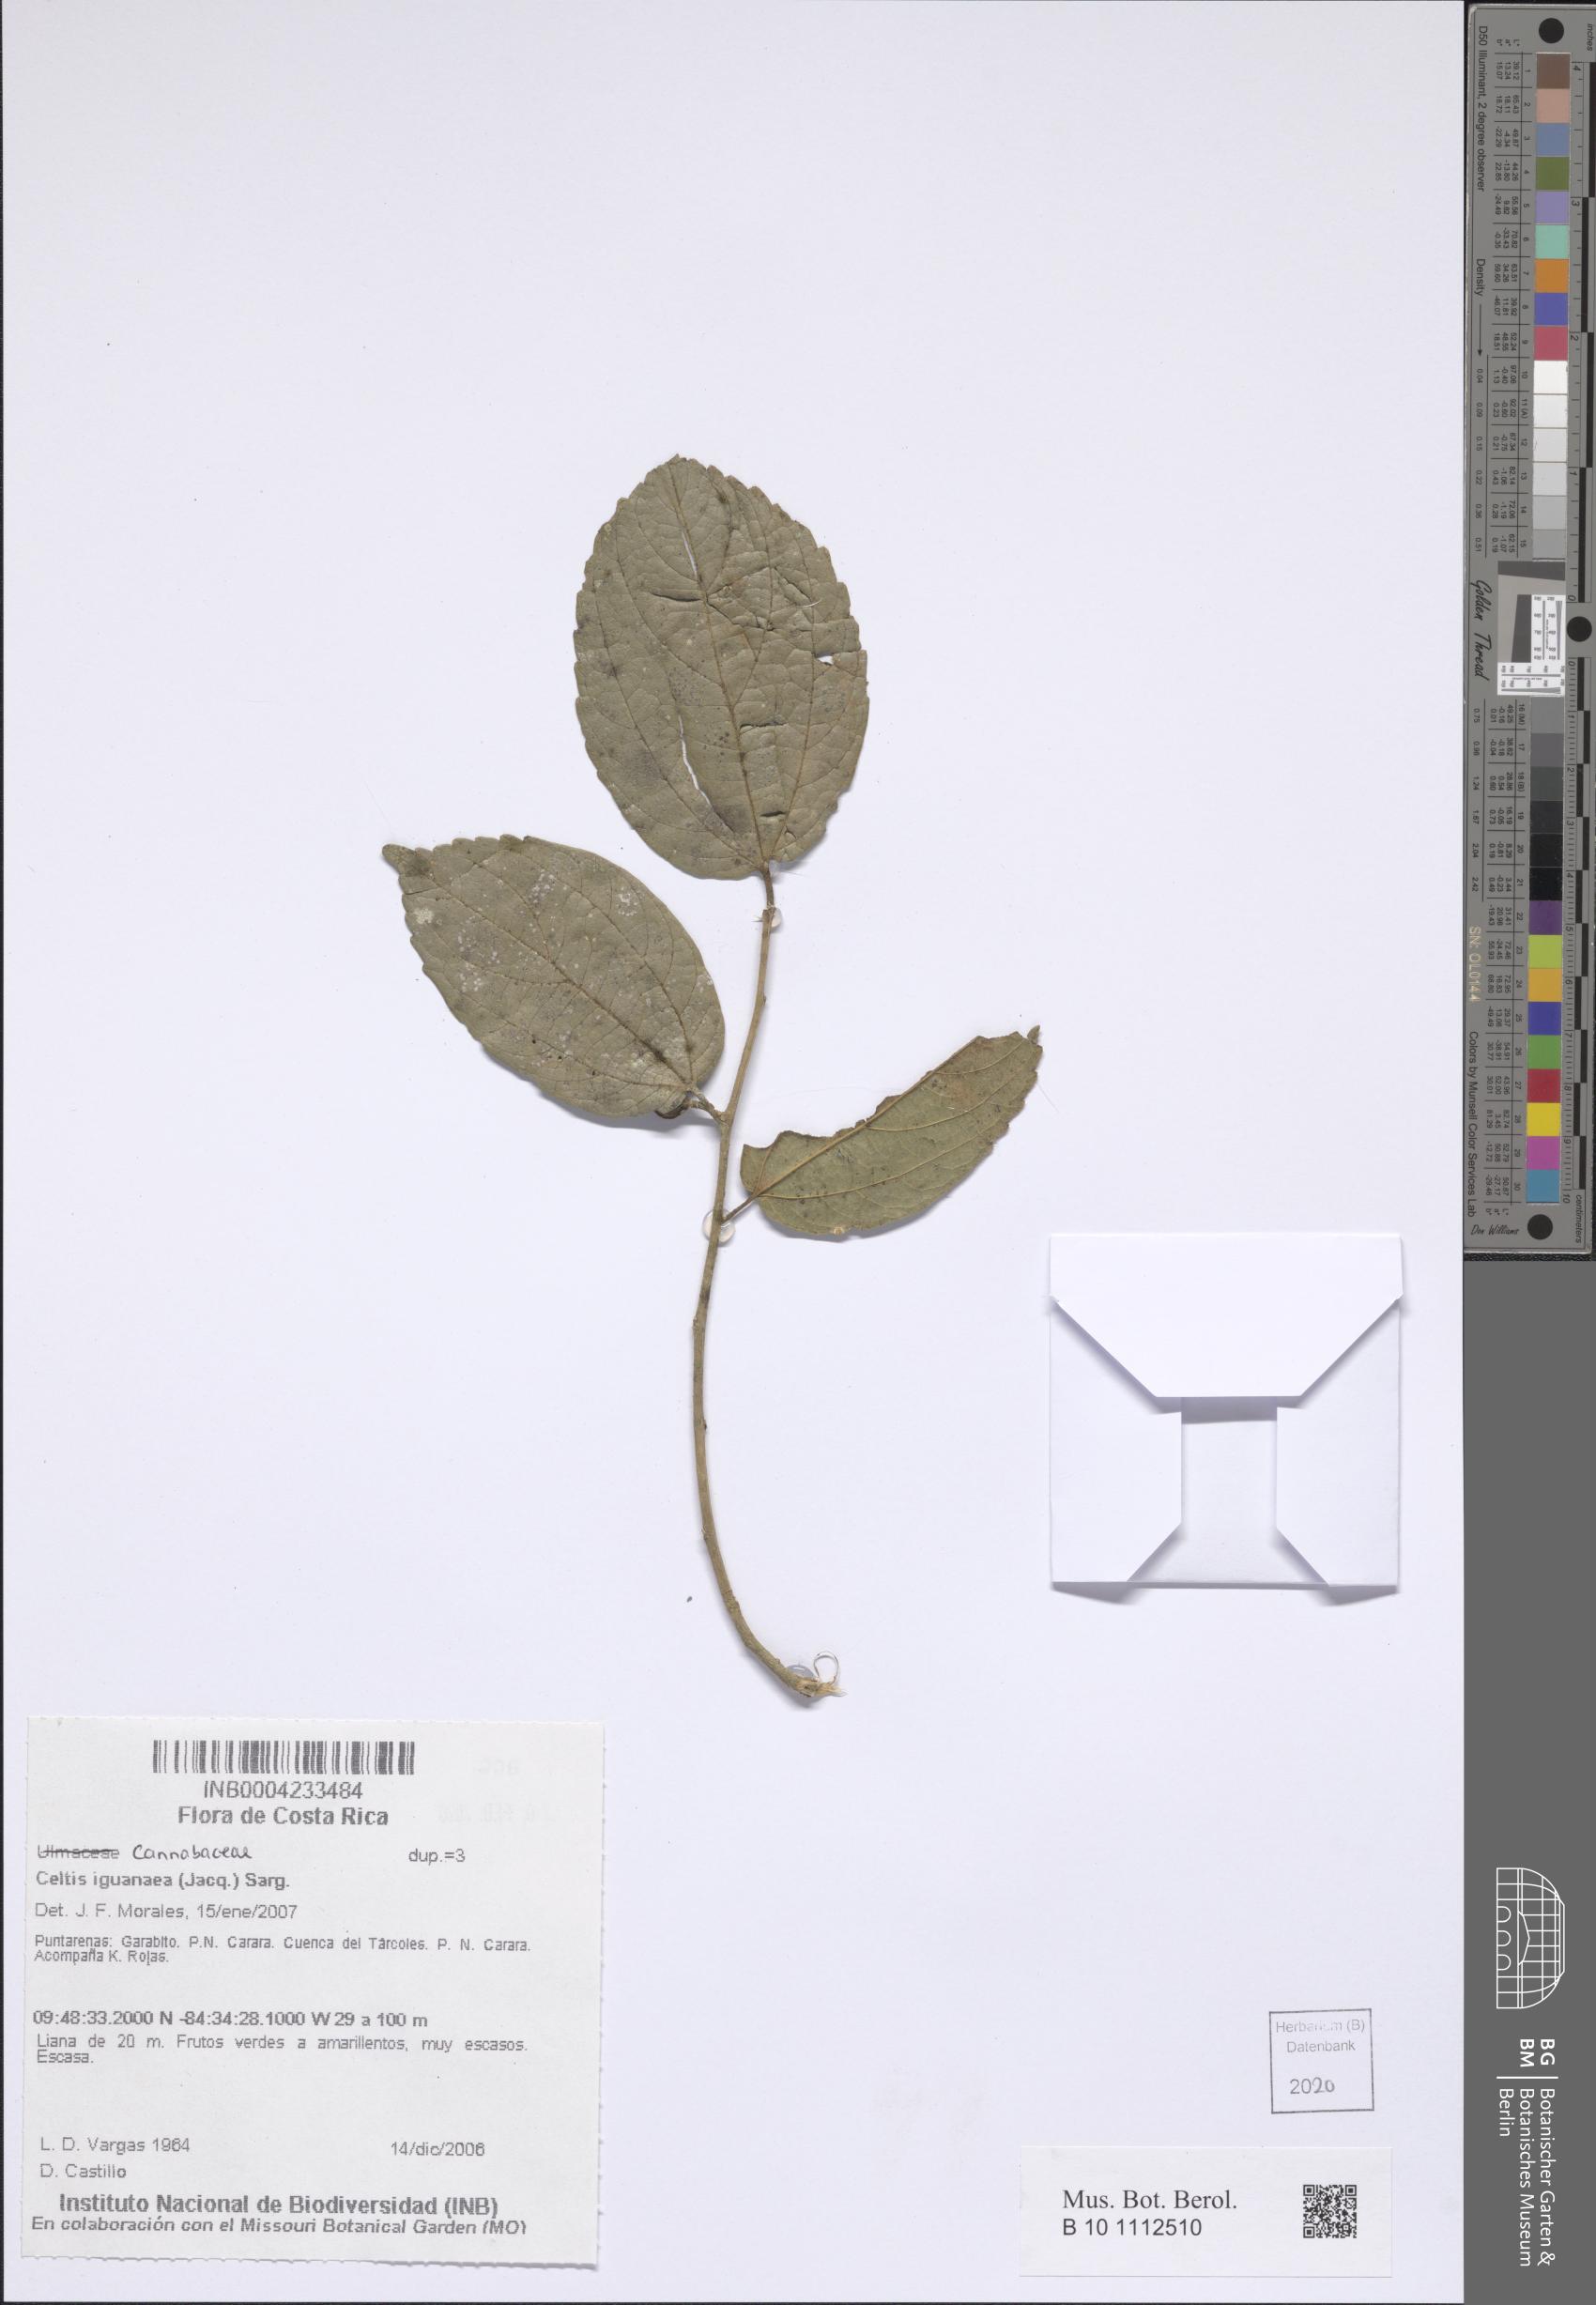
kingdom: Plantae
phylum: Tracheophyta
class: Magnoliopsida
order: Rosales
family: Cannabaceae
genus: Celtis
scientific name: Celtis iguanaea
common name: Iguana hackberry
